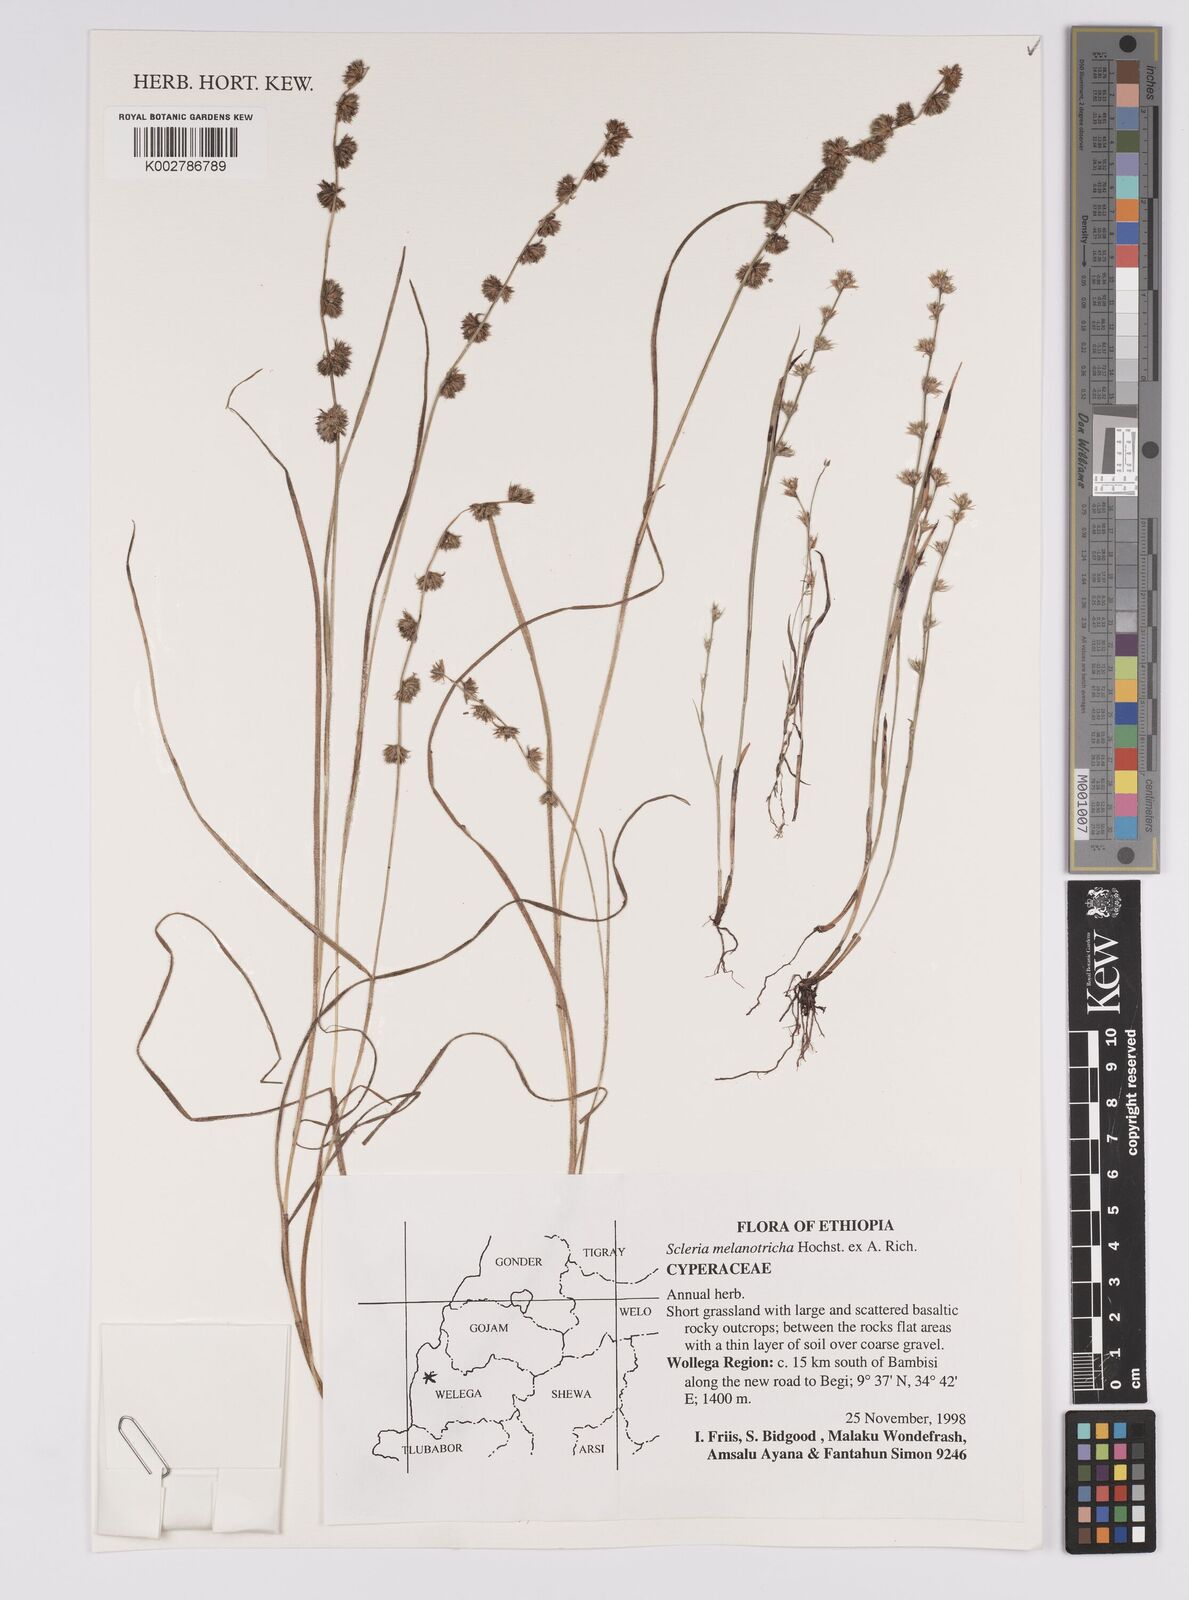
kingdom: Plantae
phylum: Tracheophyta
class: Liliopsida
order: Poales
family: Cyperaceae
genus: Scleria
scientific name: Scleria melanotricha
